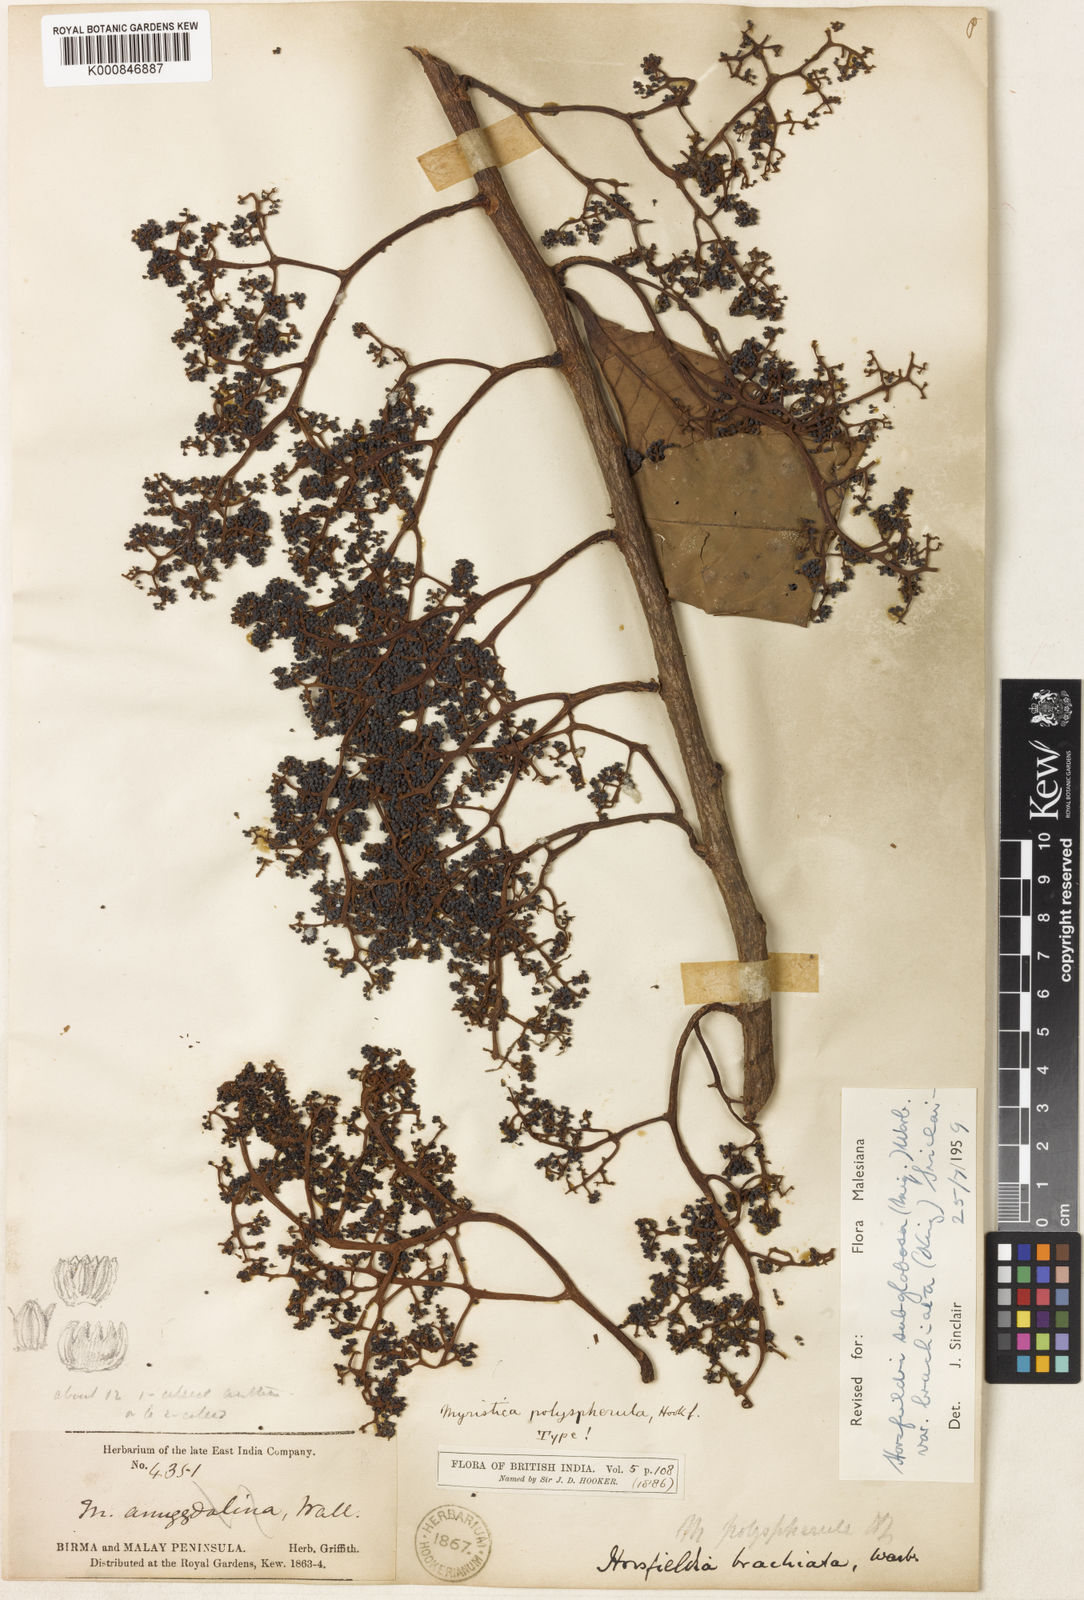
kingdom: Plantae
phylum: Tracheophyta
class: Magnoliopsida
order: Magnoliales
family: Myristicaceae
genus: Horsfieldia
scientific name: Horsfieldia irya
